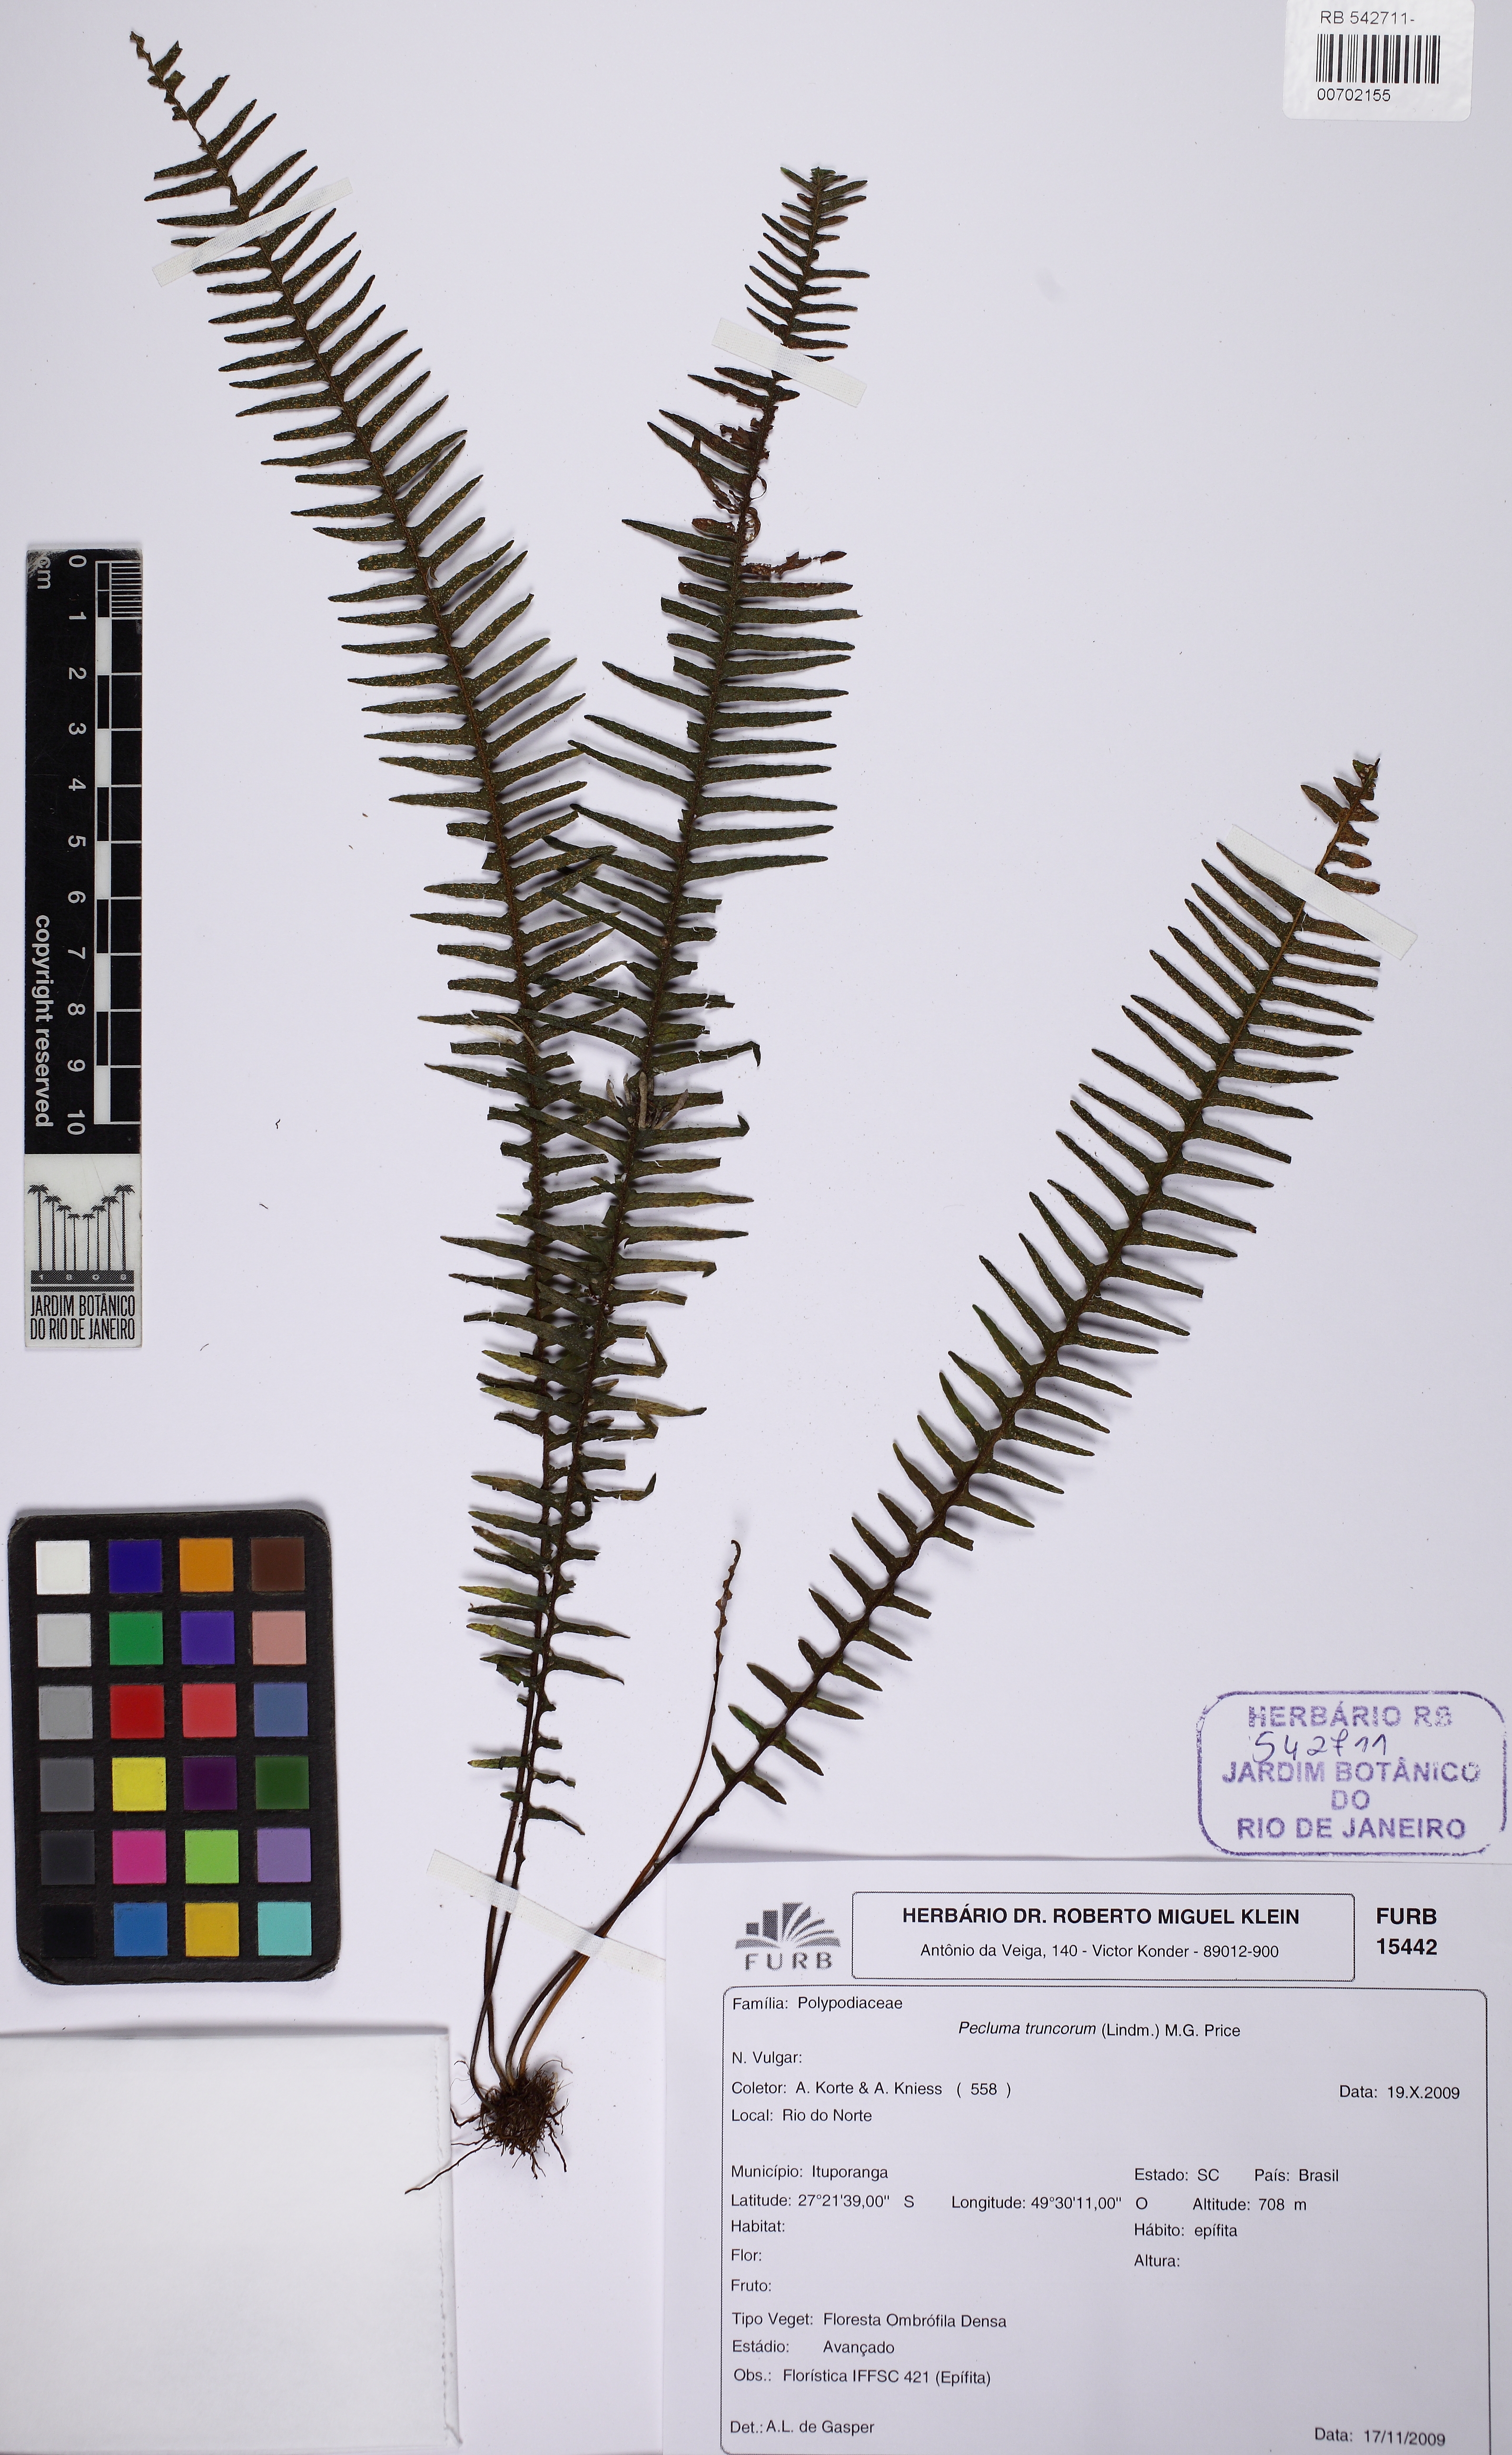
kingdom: Plantae
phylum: Tracheophyta
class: Polypodiopsida
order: Polypodiales
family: Polypodiaceae
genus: Pecluma
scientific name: Pecluma truncorum
